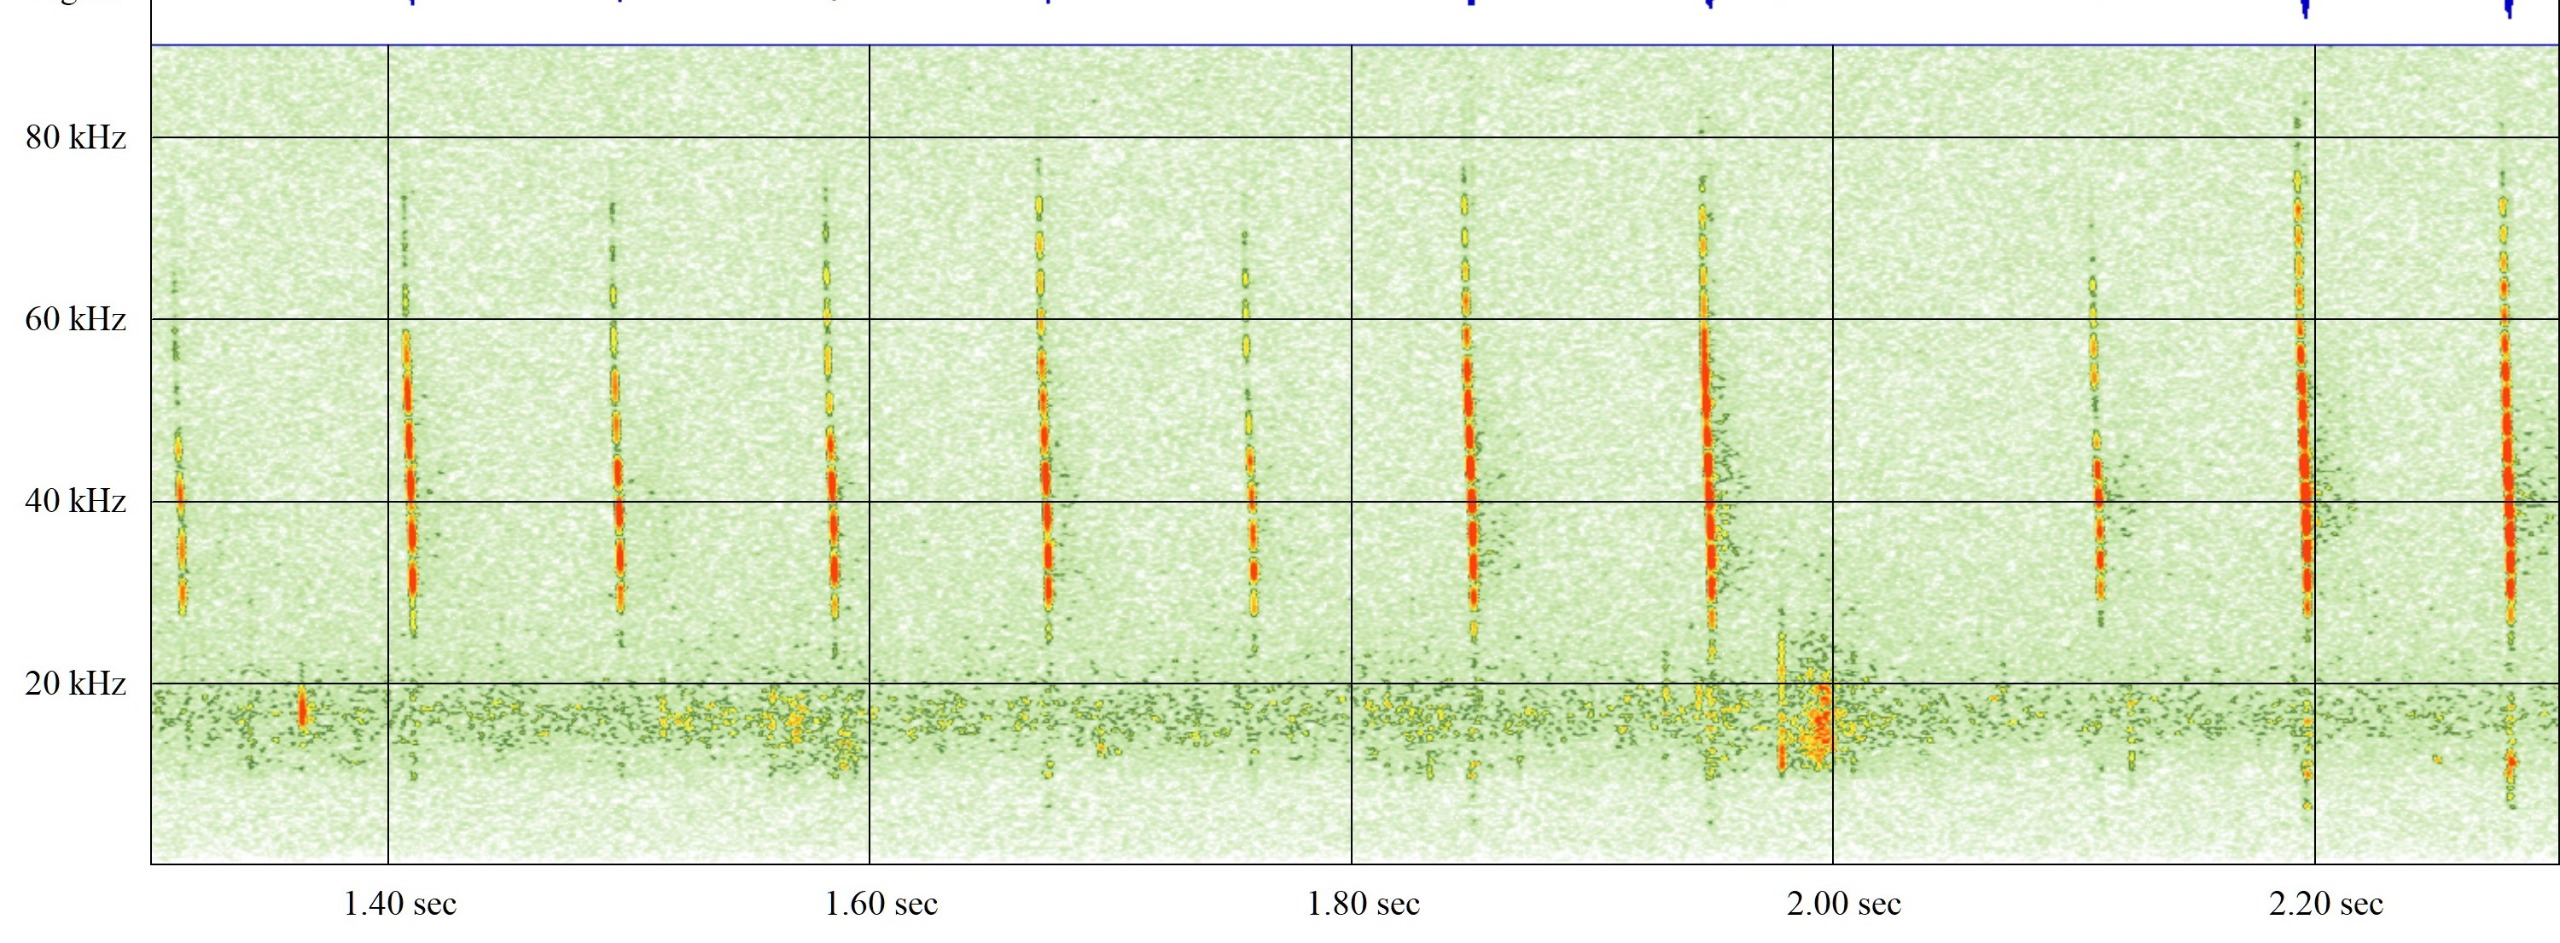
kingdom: Animalia
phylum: Chordata
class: Mammalia
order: Chiroptera
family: Vespertilionidae
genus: Myotis
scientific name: Myotis daubentonii
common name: Vandflagermus
